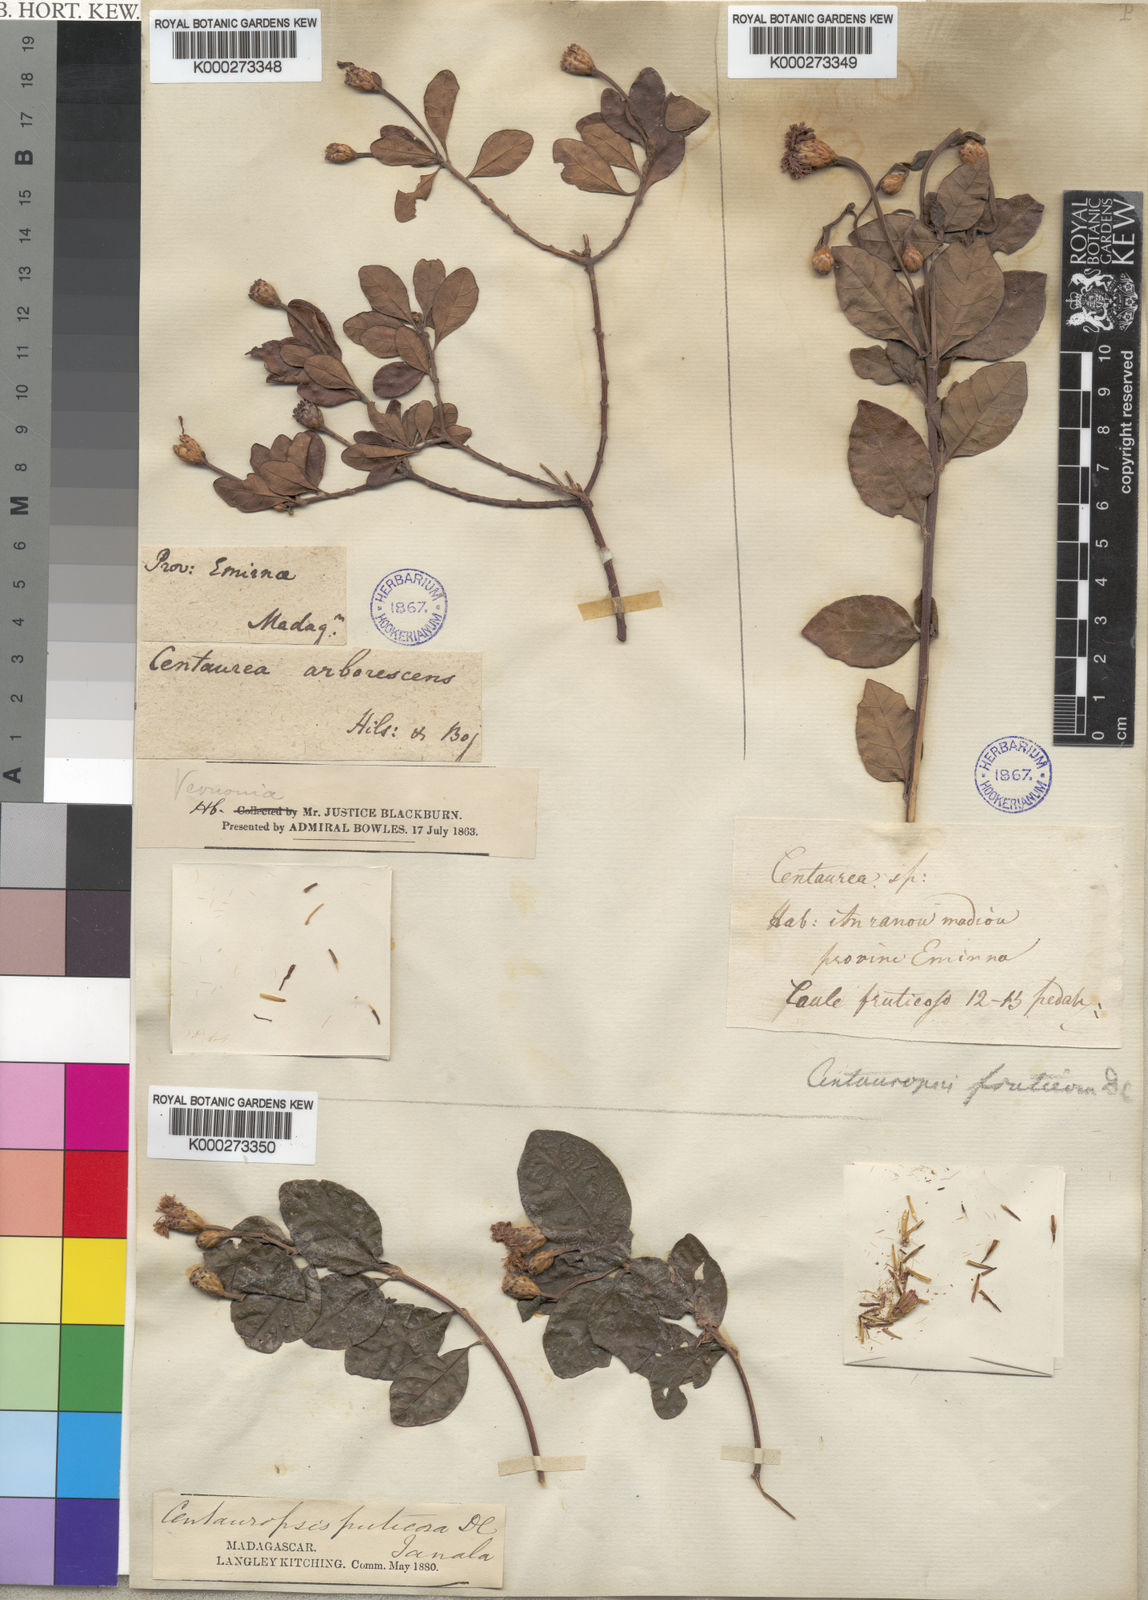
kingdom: Plantae
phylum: Tracheophyta
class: Magnoliopsida
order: Asterales
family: Asteraceae
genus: Centauropsis
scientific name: Centauropsis
